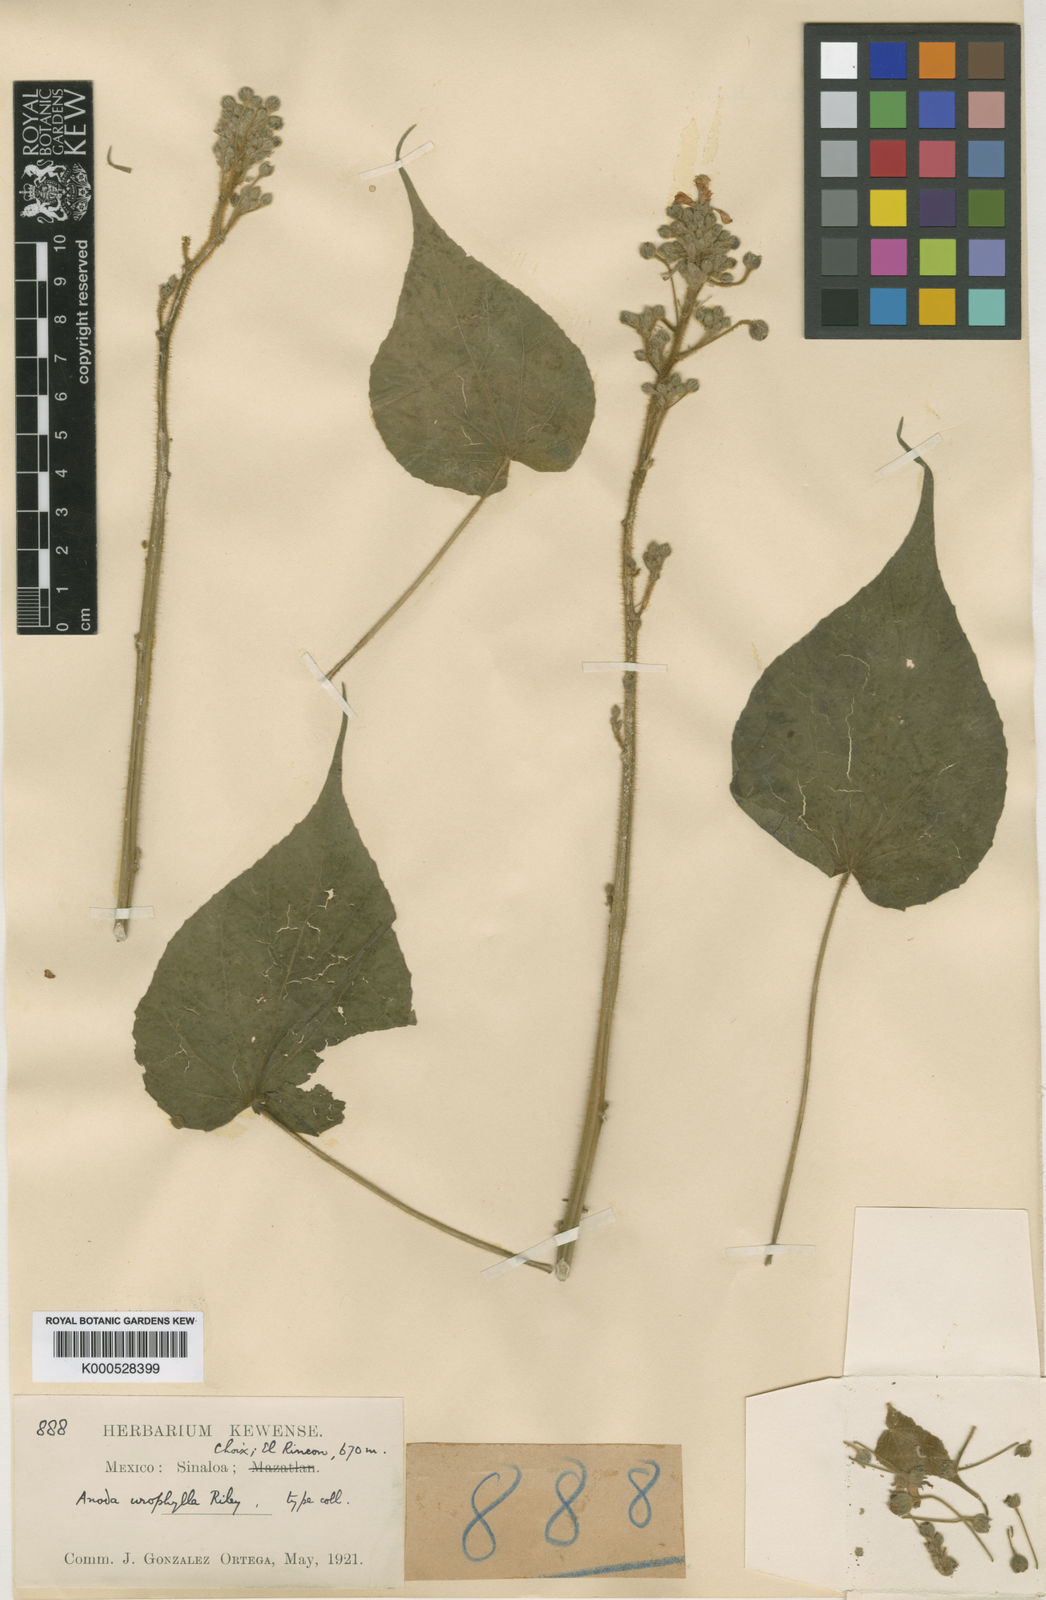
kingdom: Plantae
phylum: Tracheophyta
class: Magnoliopsida
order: Malvales
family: Malvaceae
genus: Anoda
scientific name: Anoda
